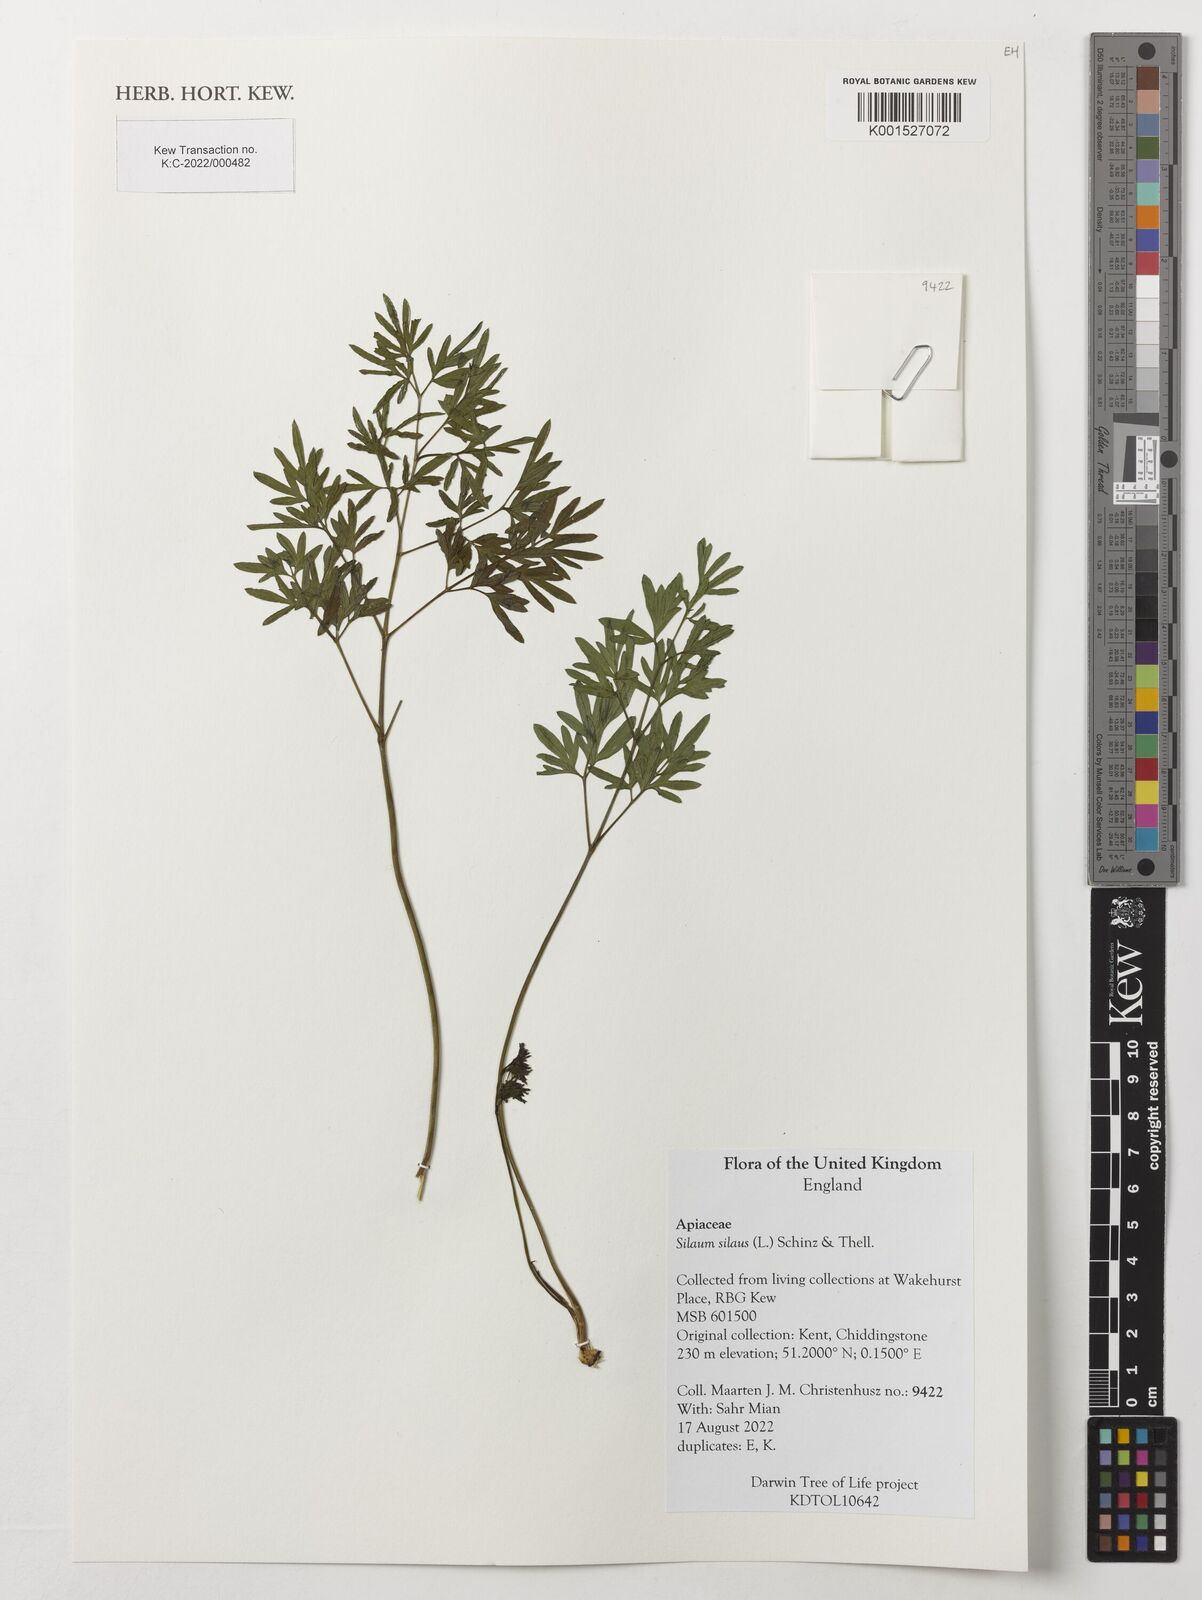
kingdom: Plantae
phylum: Tracheophyta
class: Magnoliopsida
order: Apiales
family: Apiaceae
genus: Silaum
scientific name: Silaum silaus
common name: Pepper-saxifrage
